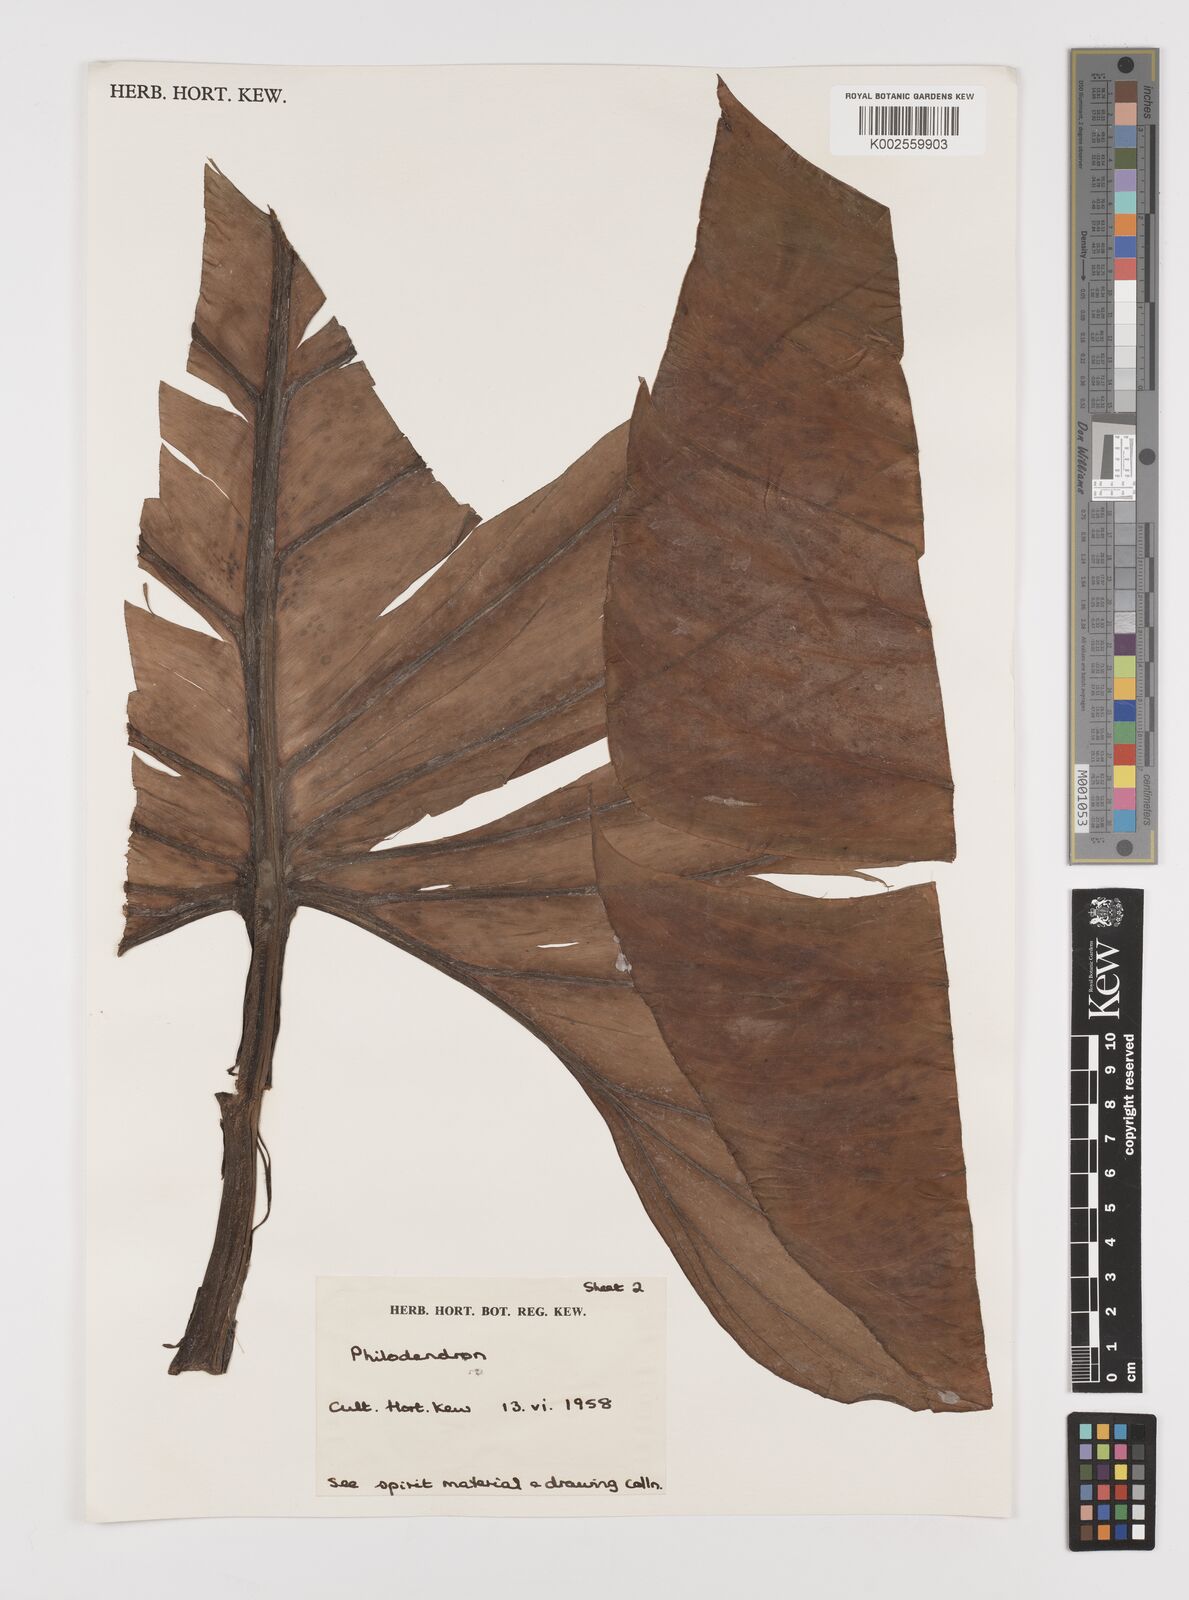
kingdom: Plantae
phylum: Tracheophyta
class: Liliopsida
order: Alismatales
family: Araceae
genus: Philodendron
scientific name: Philodendron
